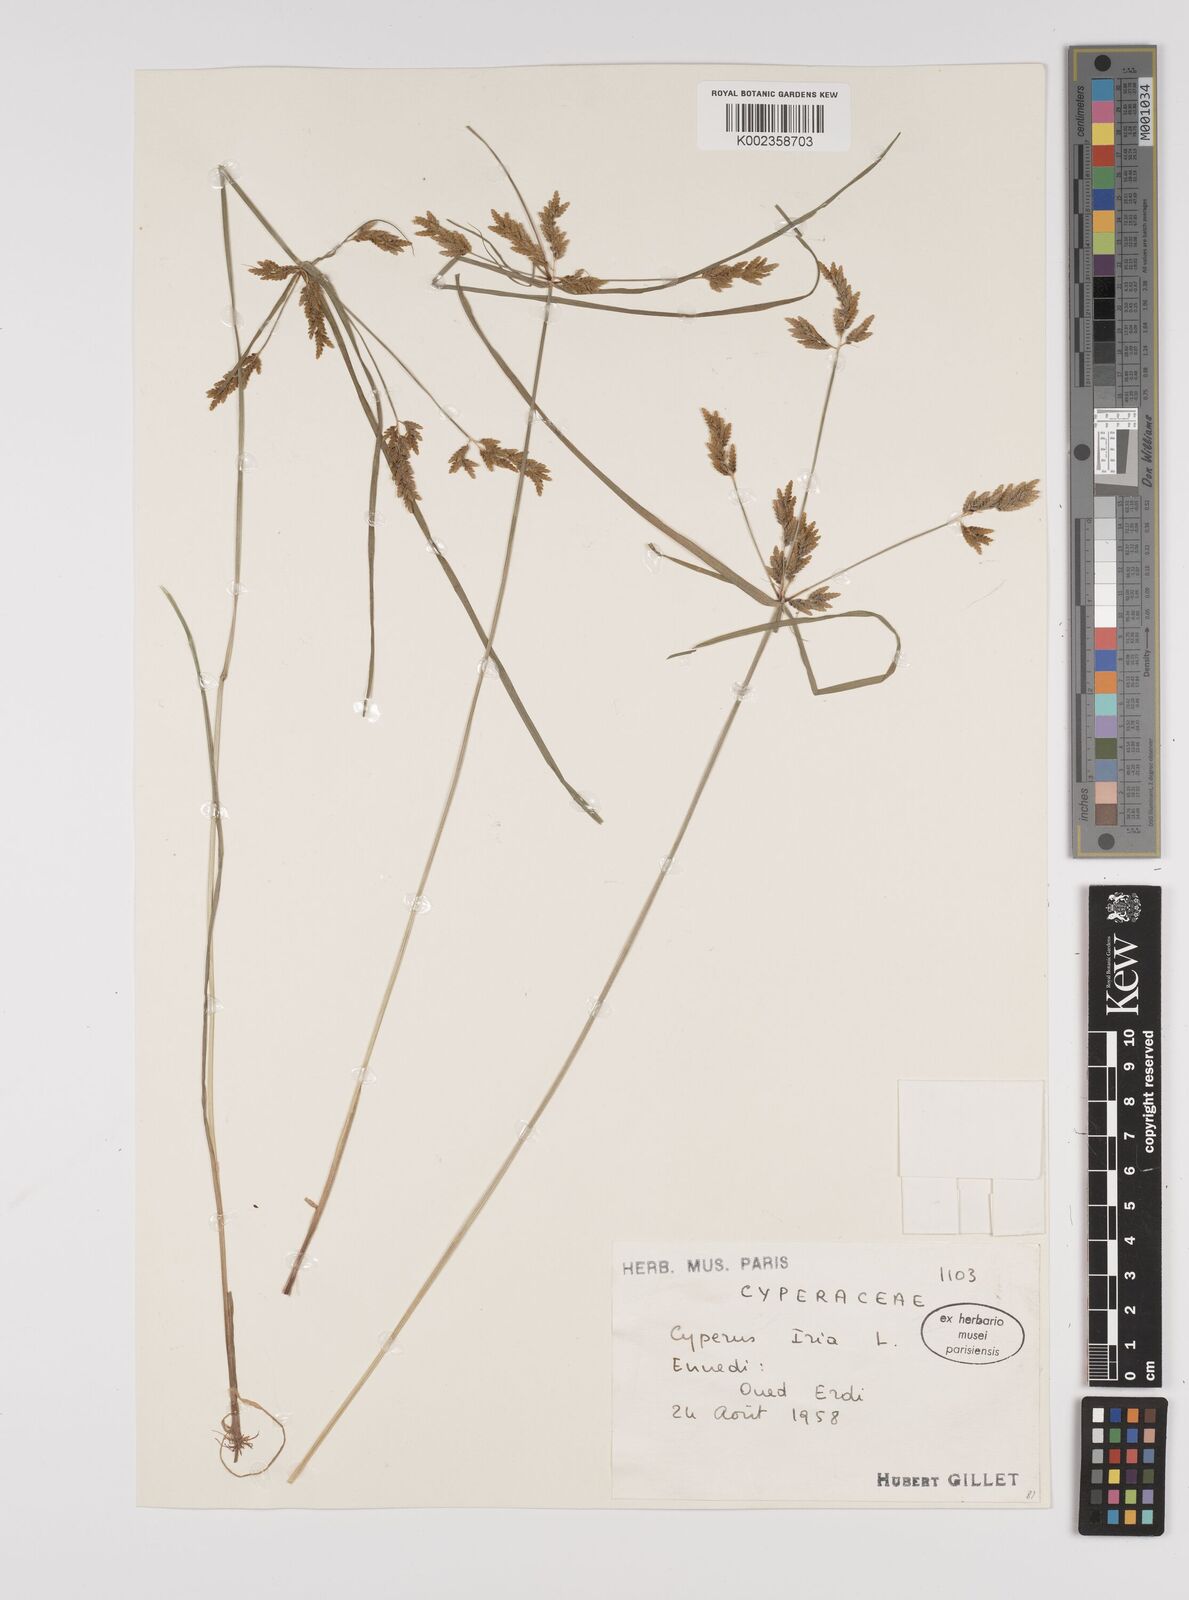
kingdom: Plantae
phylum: Tracheophyta
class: Liliopsida
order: Poales
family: Cyperaceae
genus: Cyperus
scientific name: Cyperus iria
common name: Ricefield flatsedge
